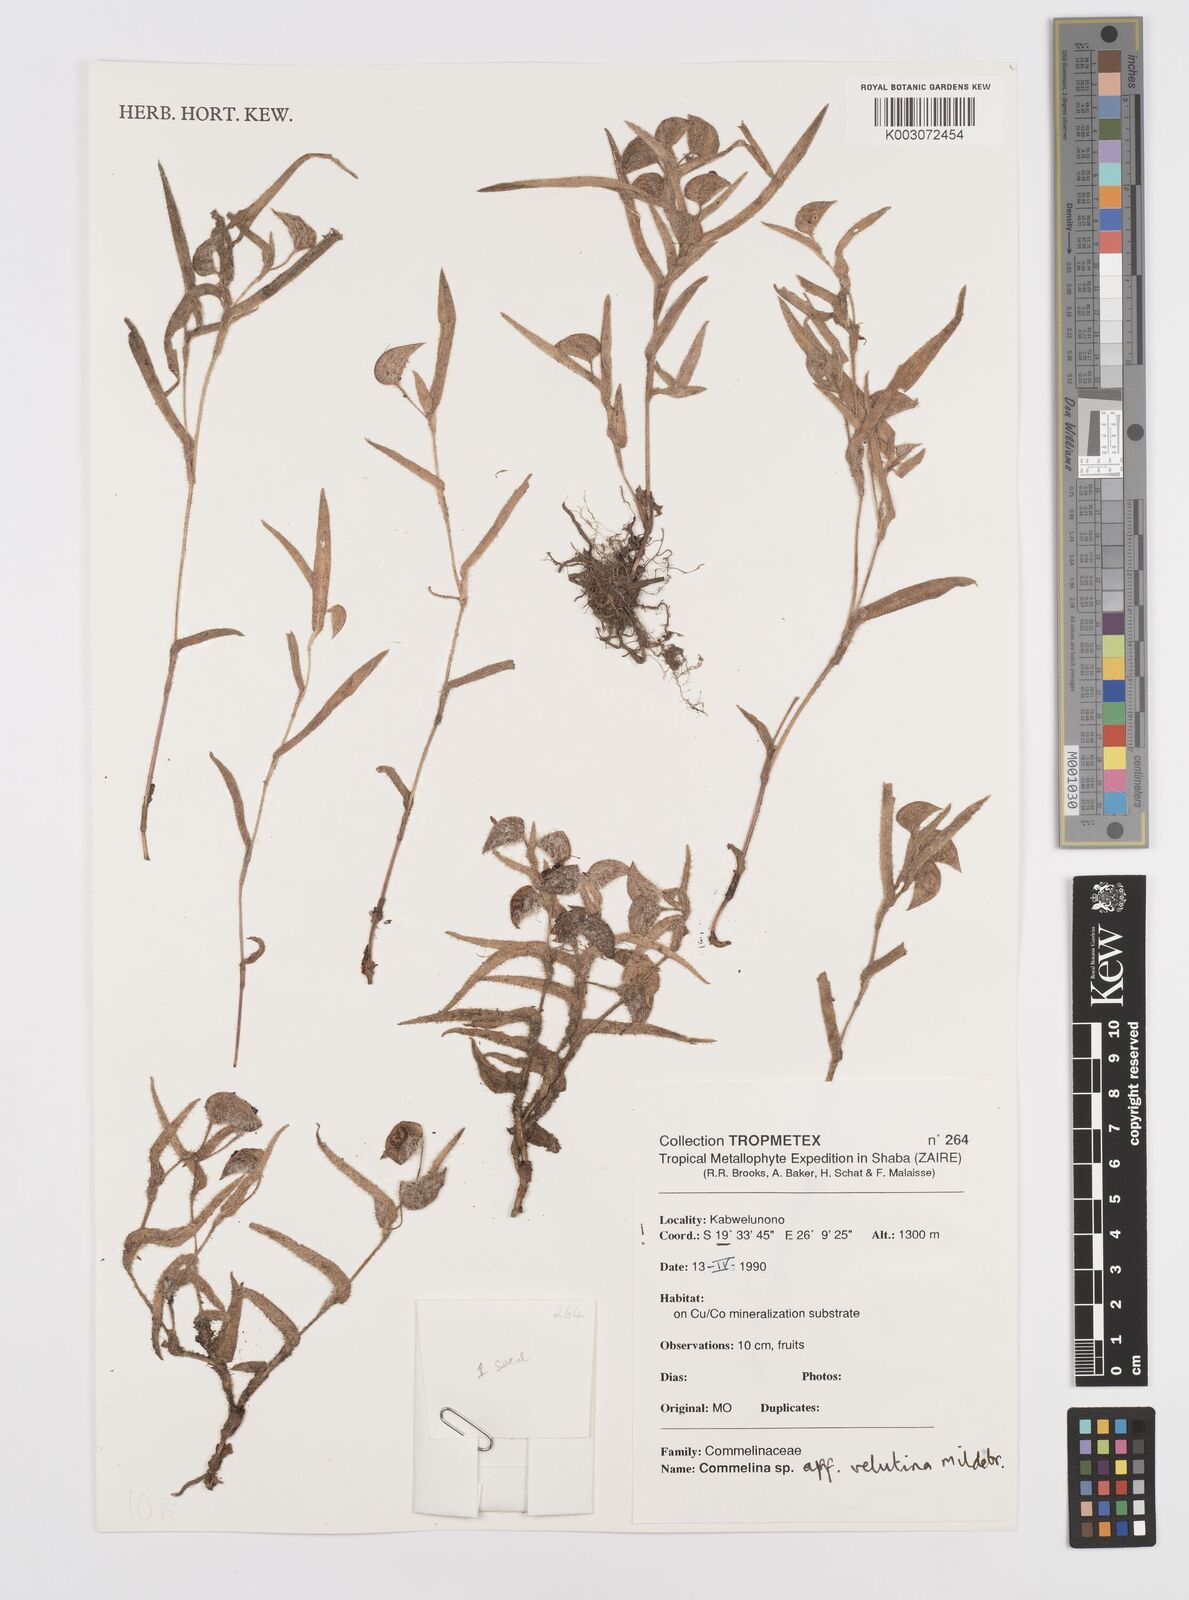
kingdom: Plantae
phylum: Tracheophyta
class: Liliopsida
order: Commelinales
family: Commelinaceae
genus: Commelina
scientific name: Commelina velutina
